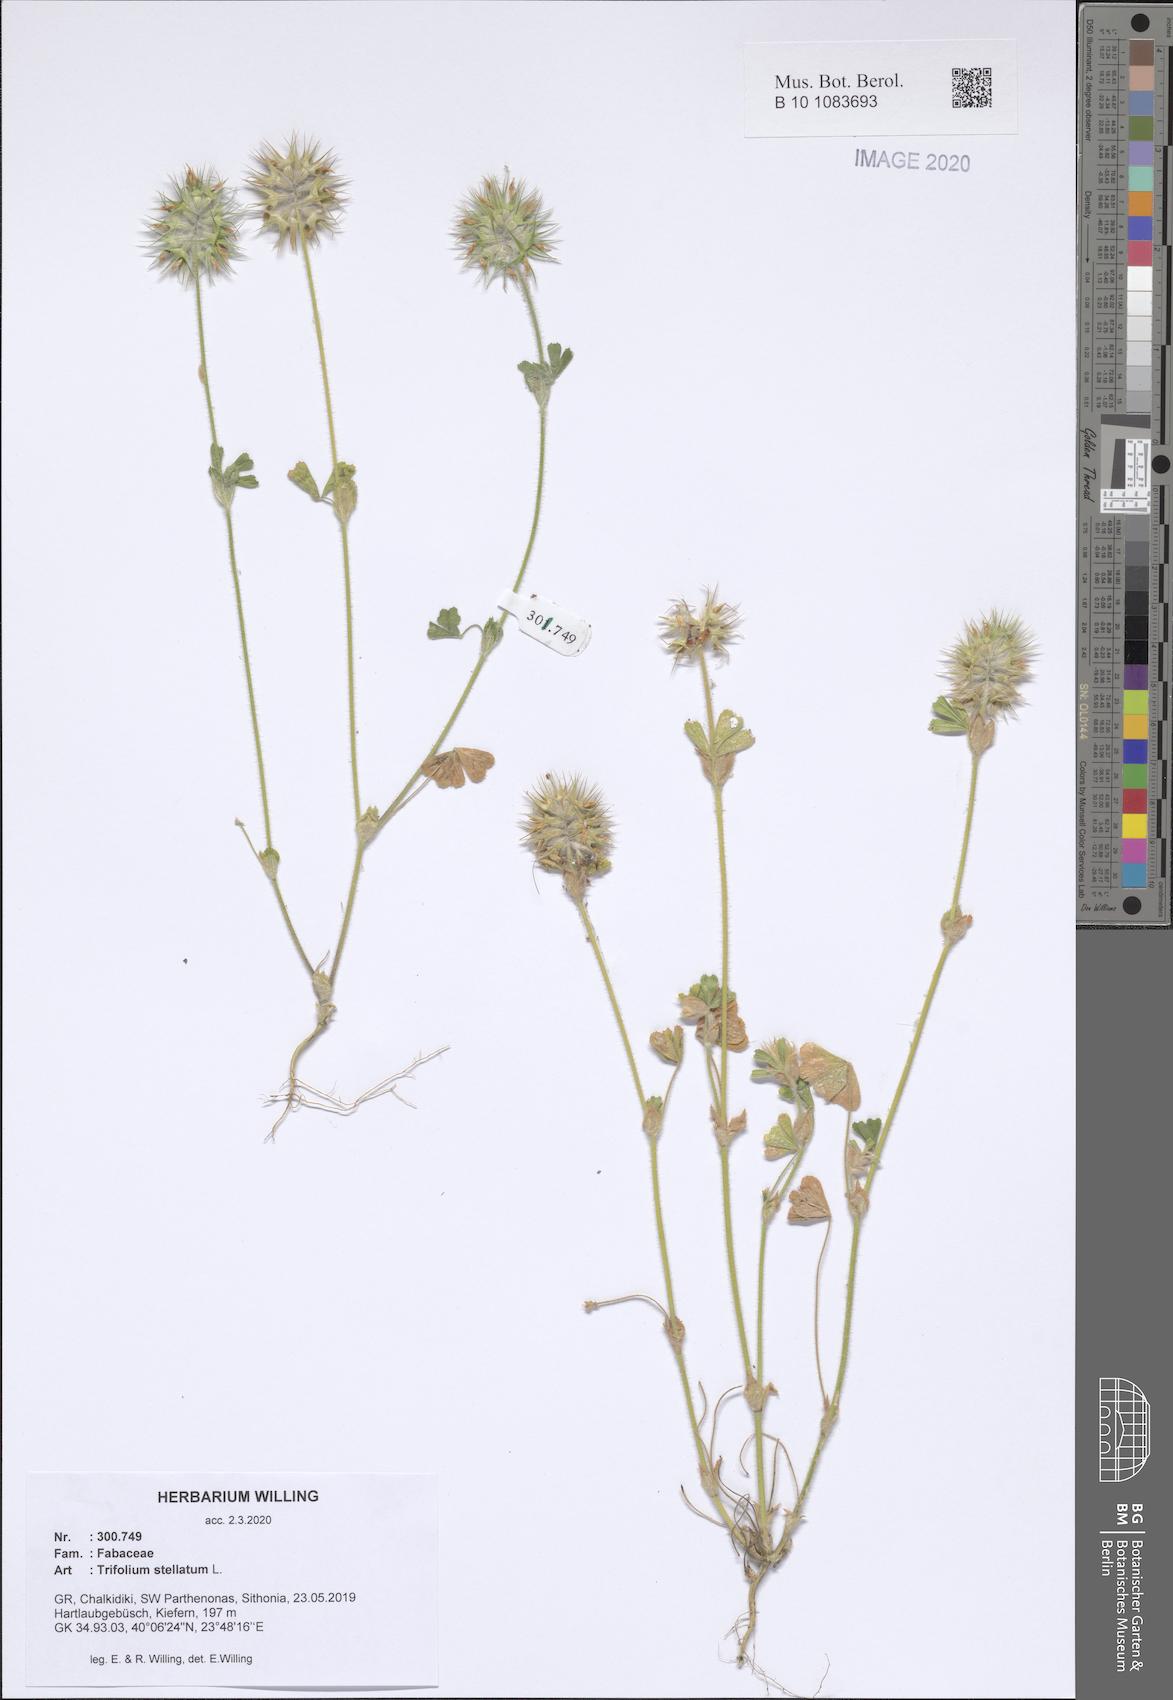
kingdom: Plantae
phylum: Tracheophyta
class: Magnoliopsida
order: Fabales
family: Fabaceae
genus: Trifolium
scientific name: Trifolium stellatum
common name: Starry clover
